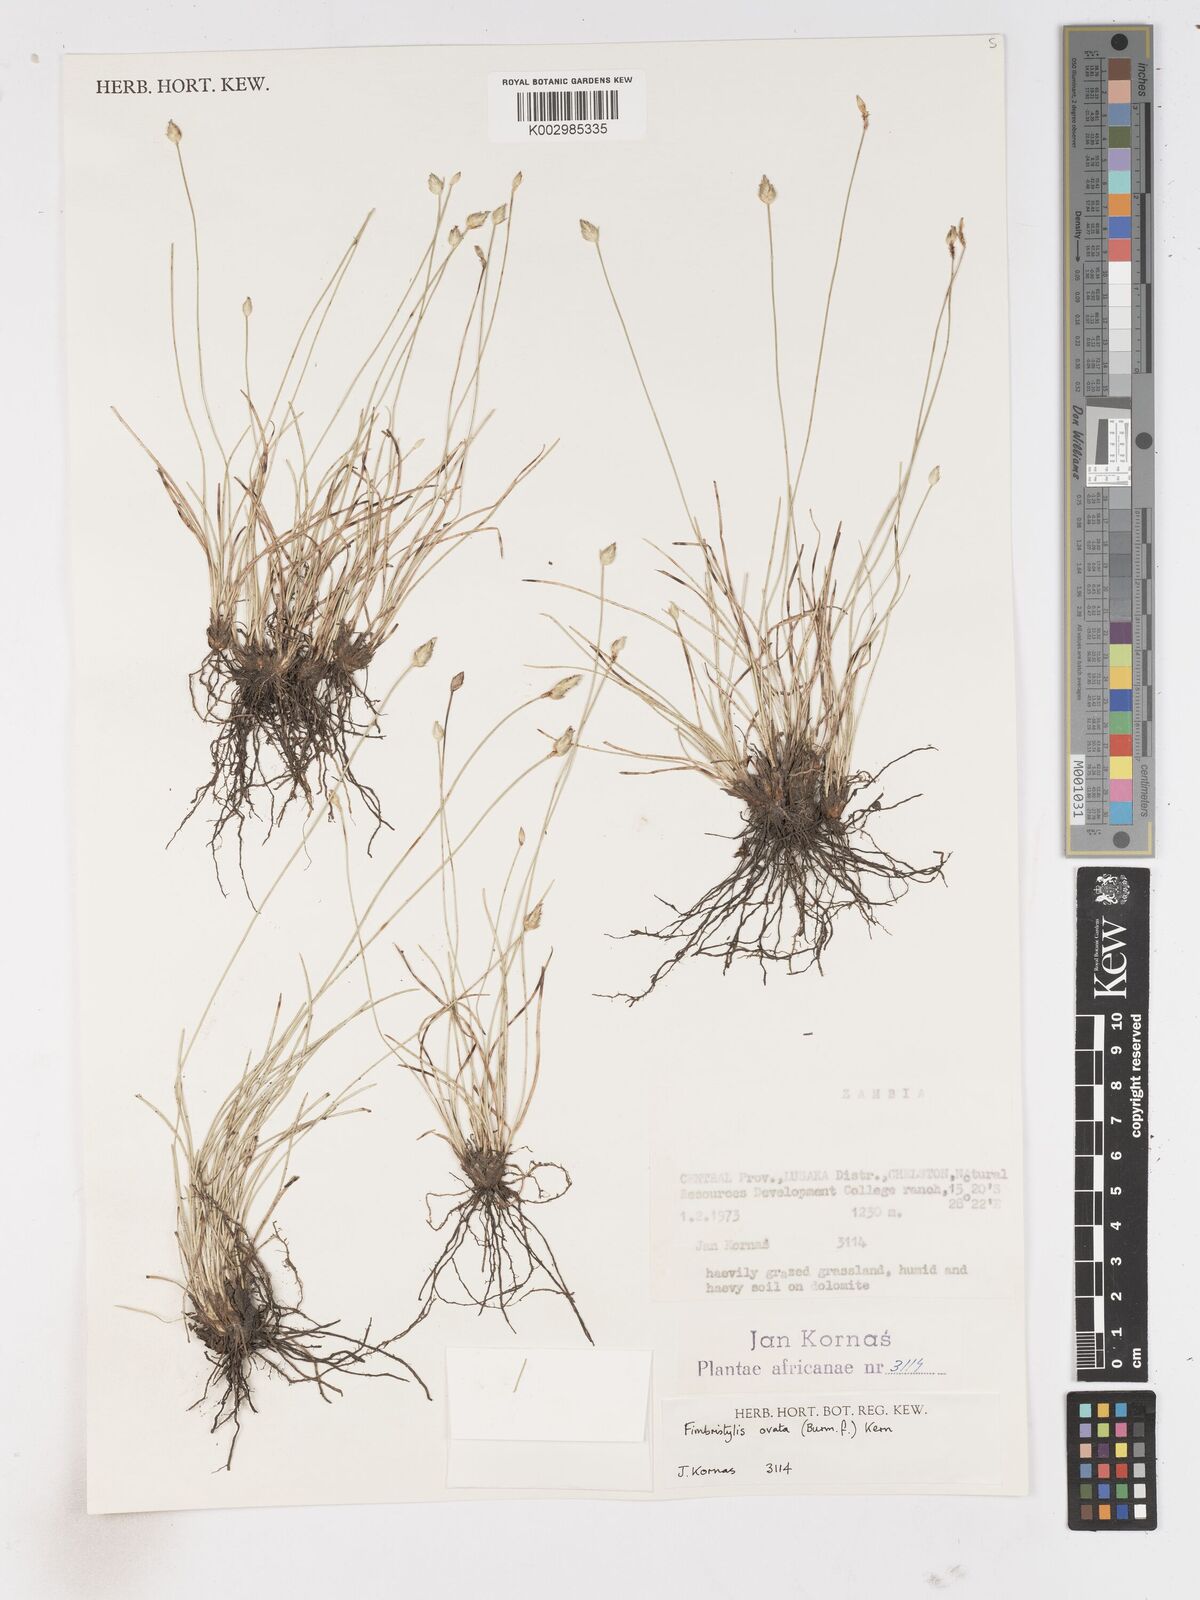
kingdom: Plantae
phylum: Tracheophyta
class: Liliopsida
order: Poales
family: Cyperaceae
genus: Abildgaardia
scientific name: Abildgaardia ovata
